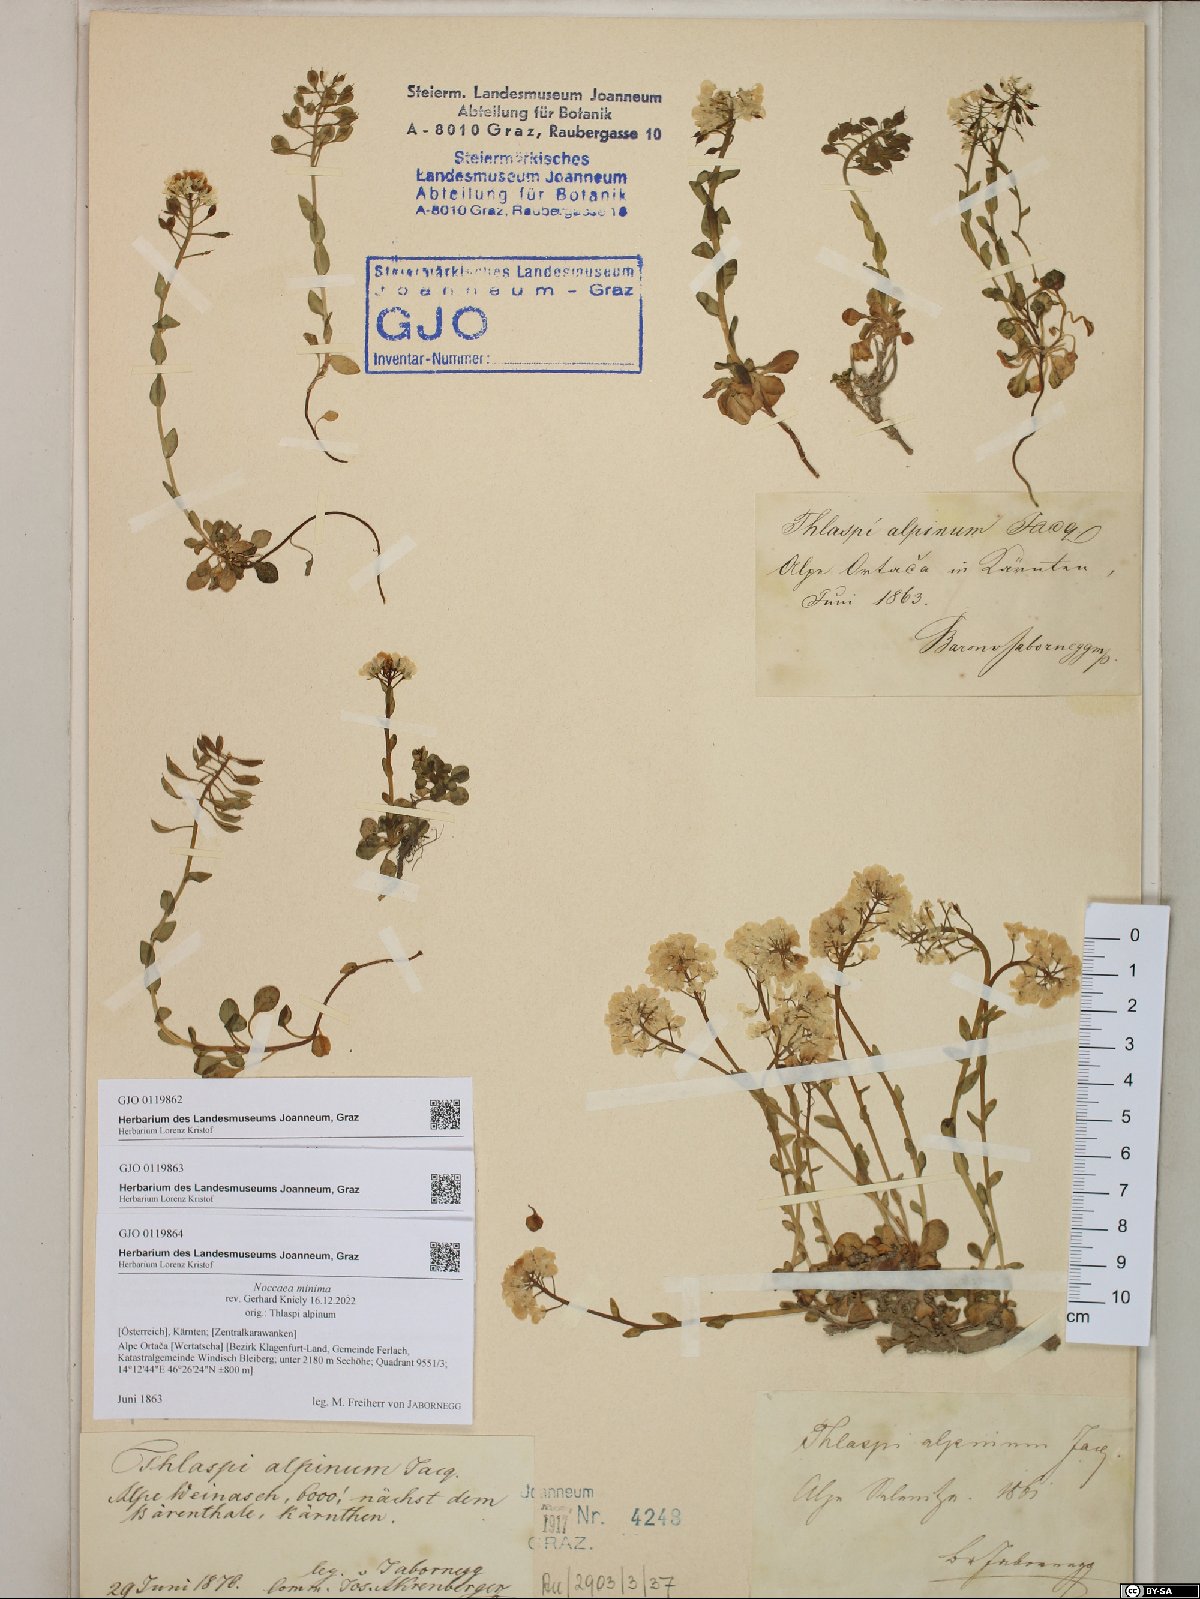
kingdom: Plantae
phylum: Tracheophyta
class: Magnoliopsida
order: Brassicales
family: Brassicaceae
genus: Noccaea
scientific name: Noccaea minima
